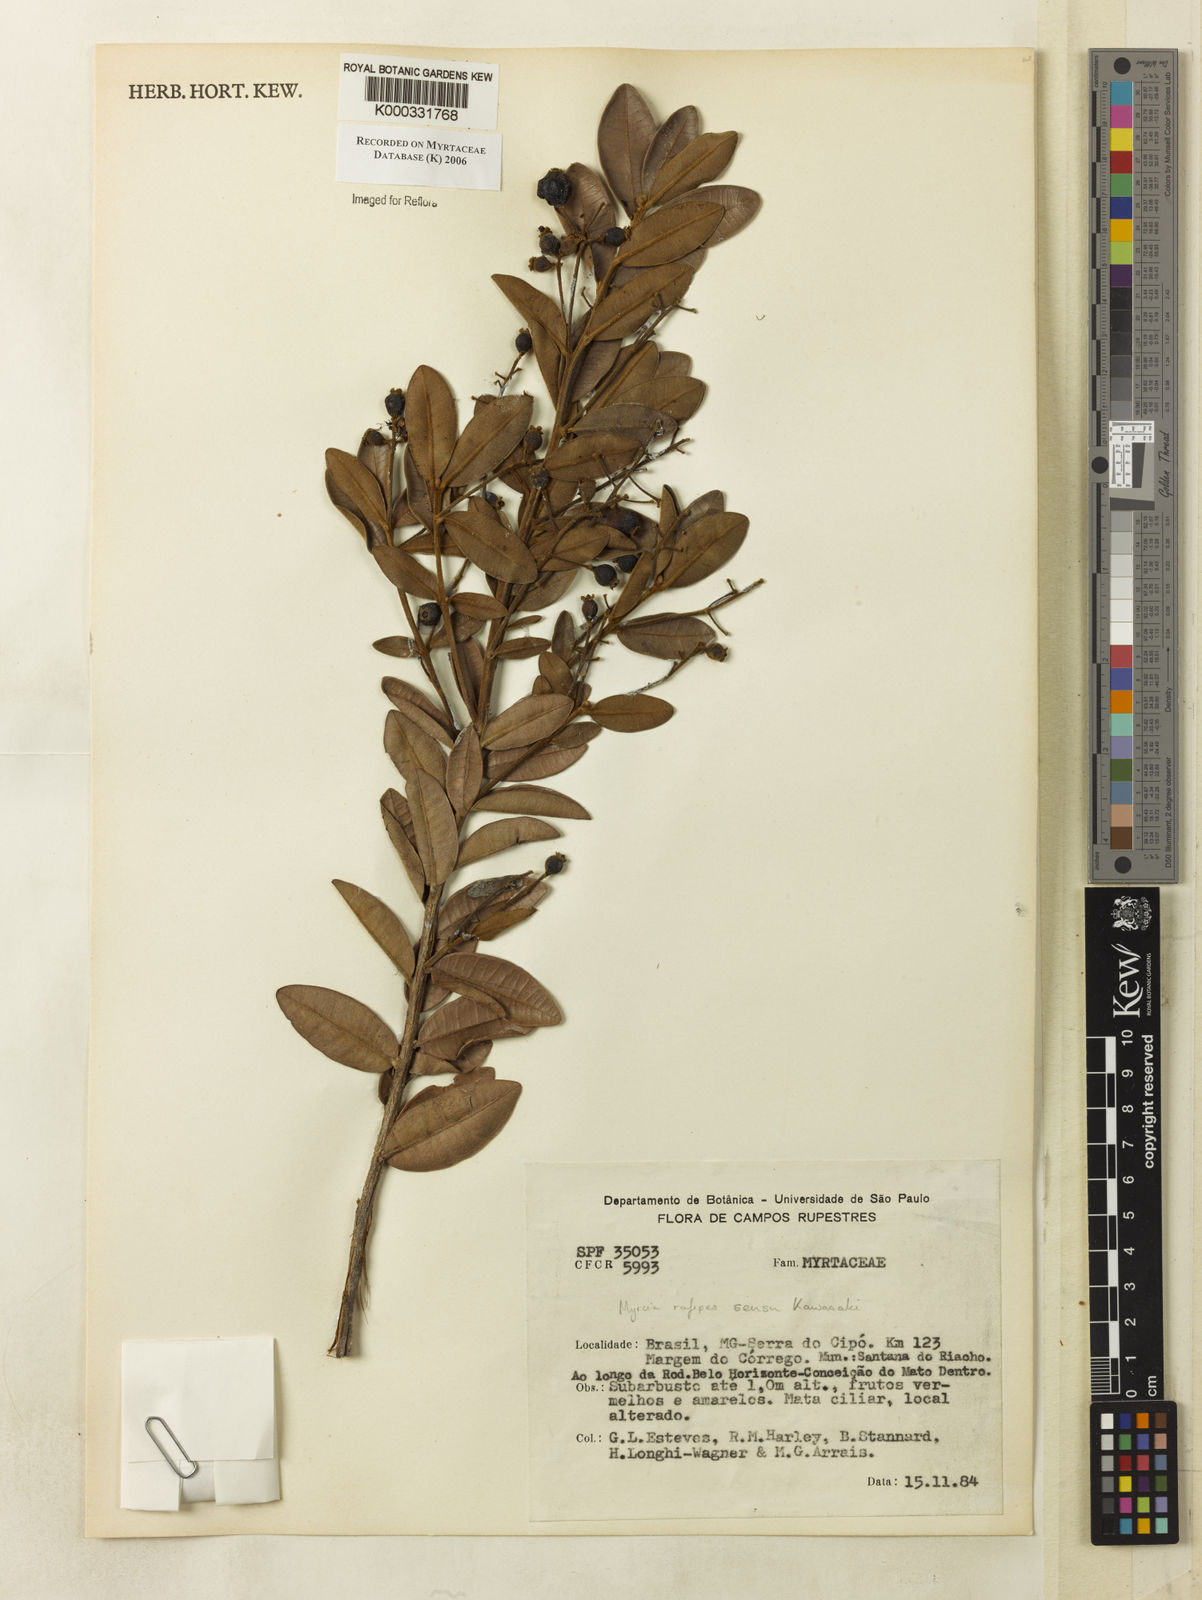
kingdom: Plantae
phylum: Tracheophyta
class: Magnoliopsida
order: Myrtales
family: Myrtaceae
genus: Myrcia
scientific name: Myrcia rufipes
